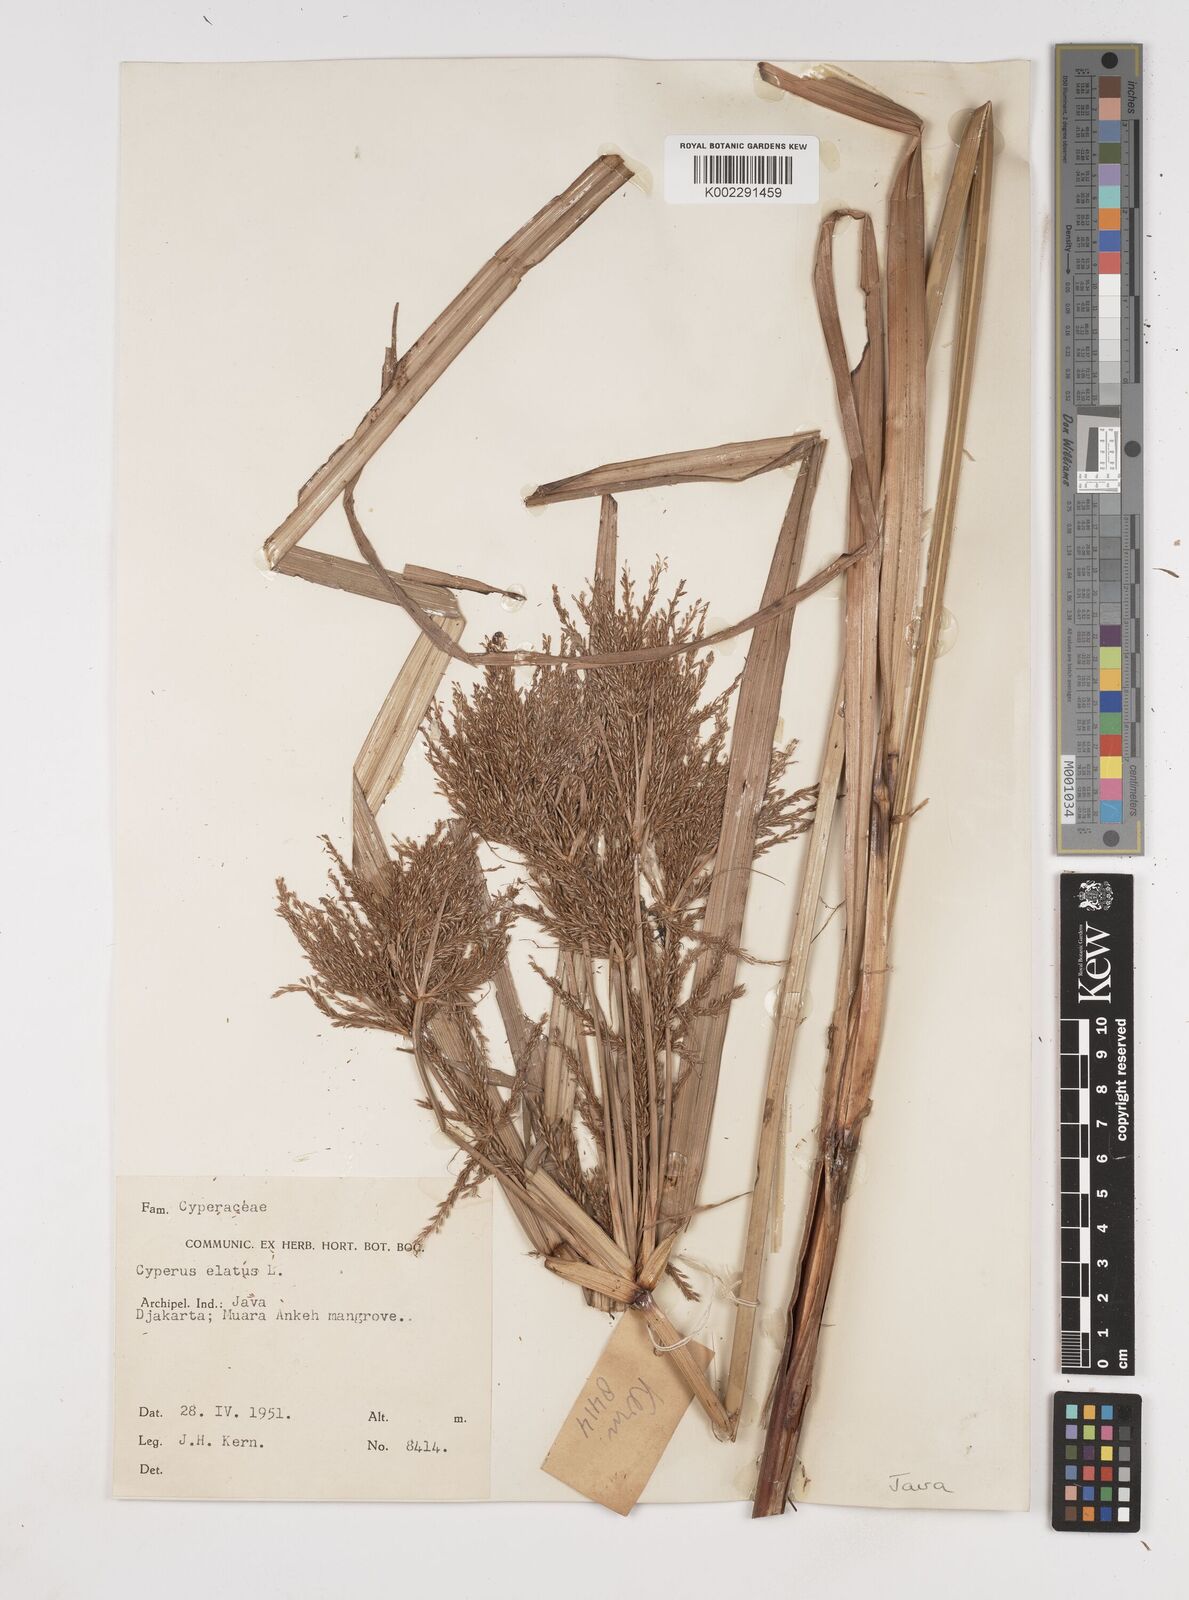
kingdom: Plantae
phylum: Tracheophyta
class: Liliopsida
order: Poales
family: Cyperaceae
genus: Cyperus
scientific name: Cyperus elatus
